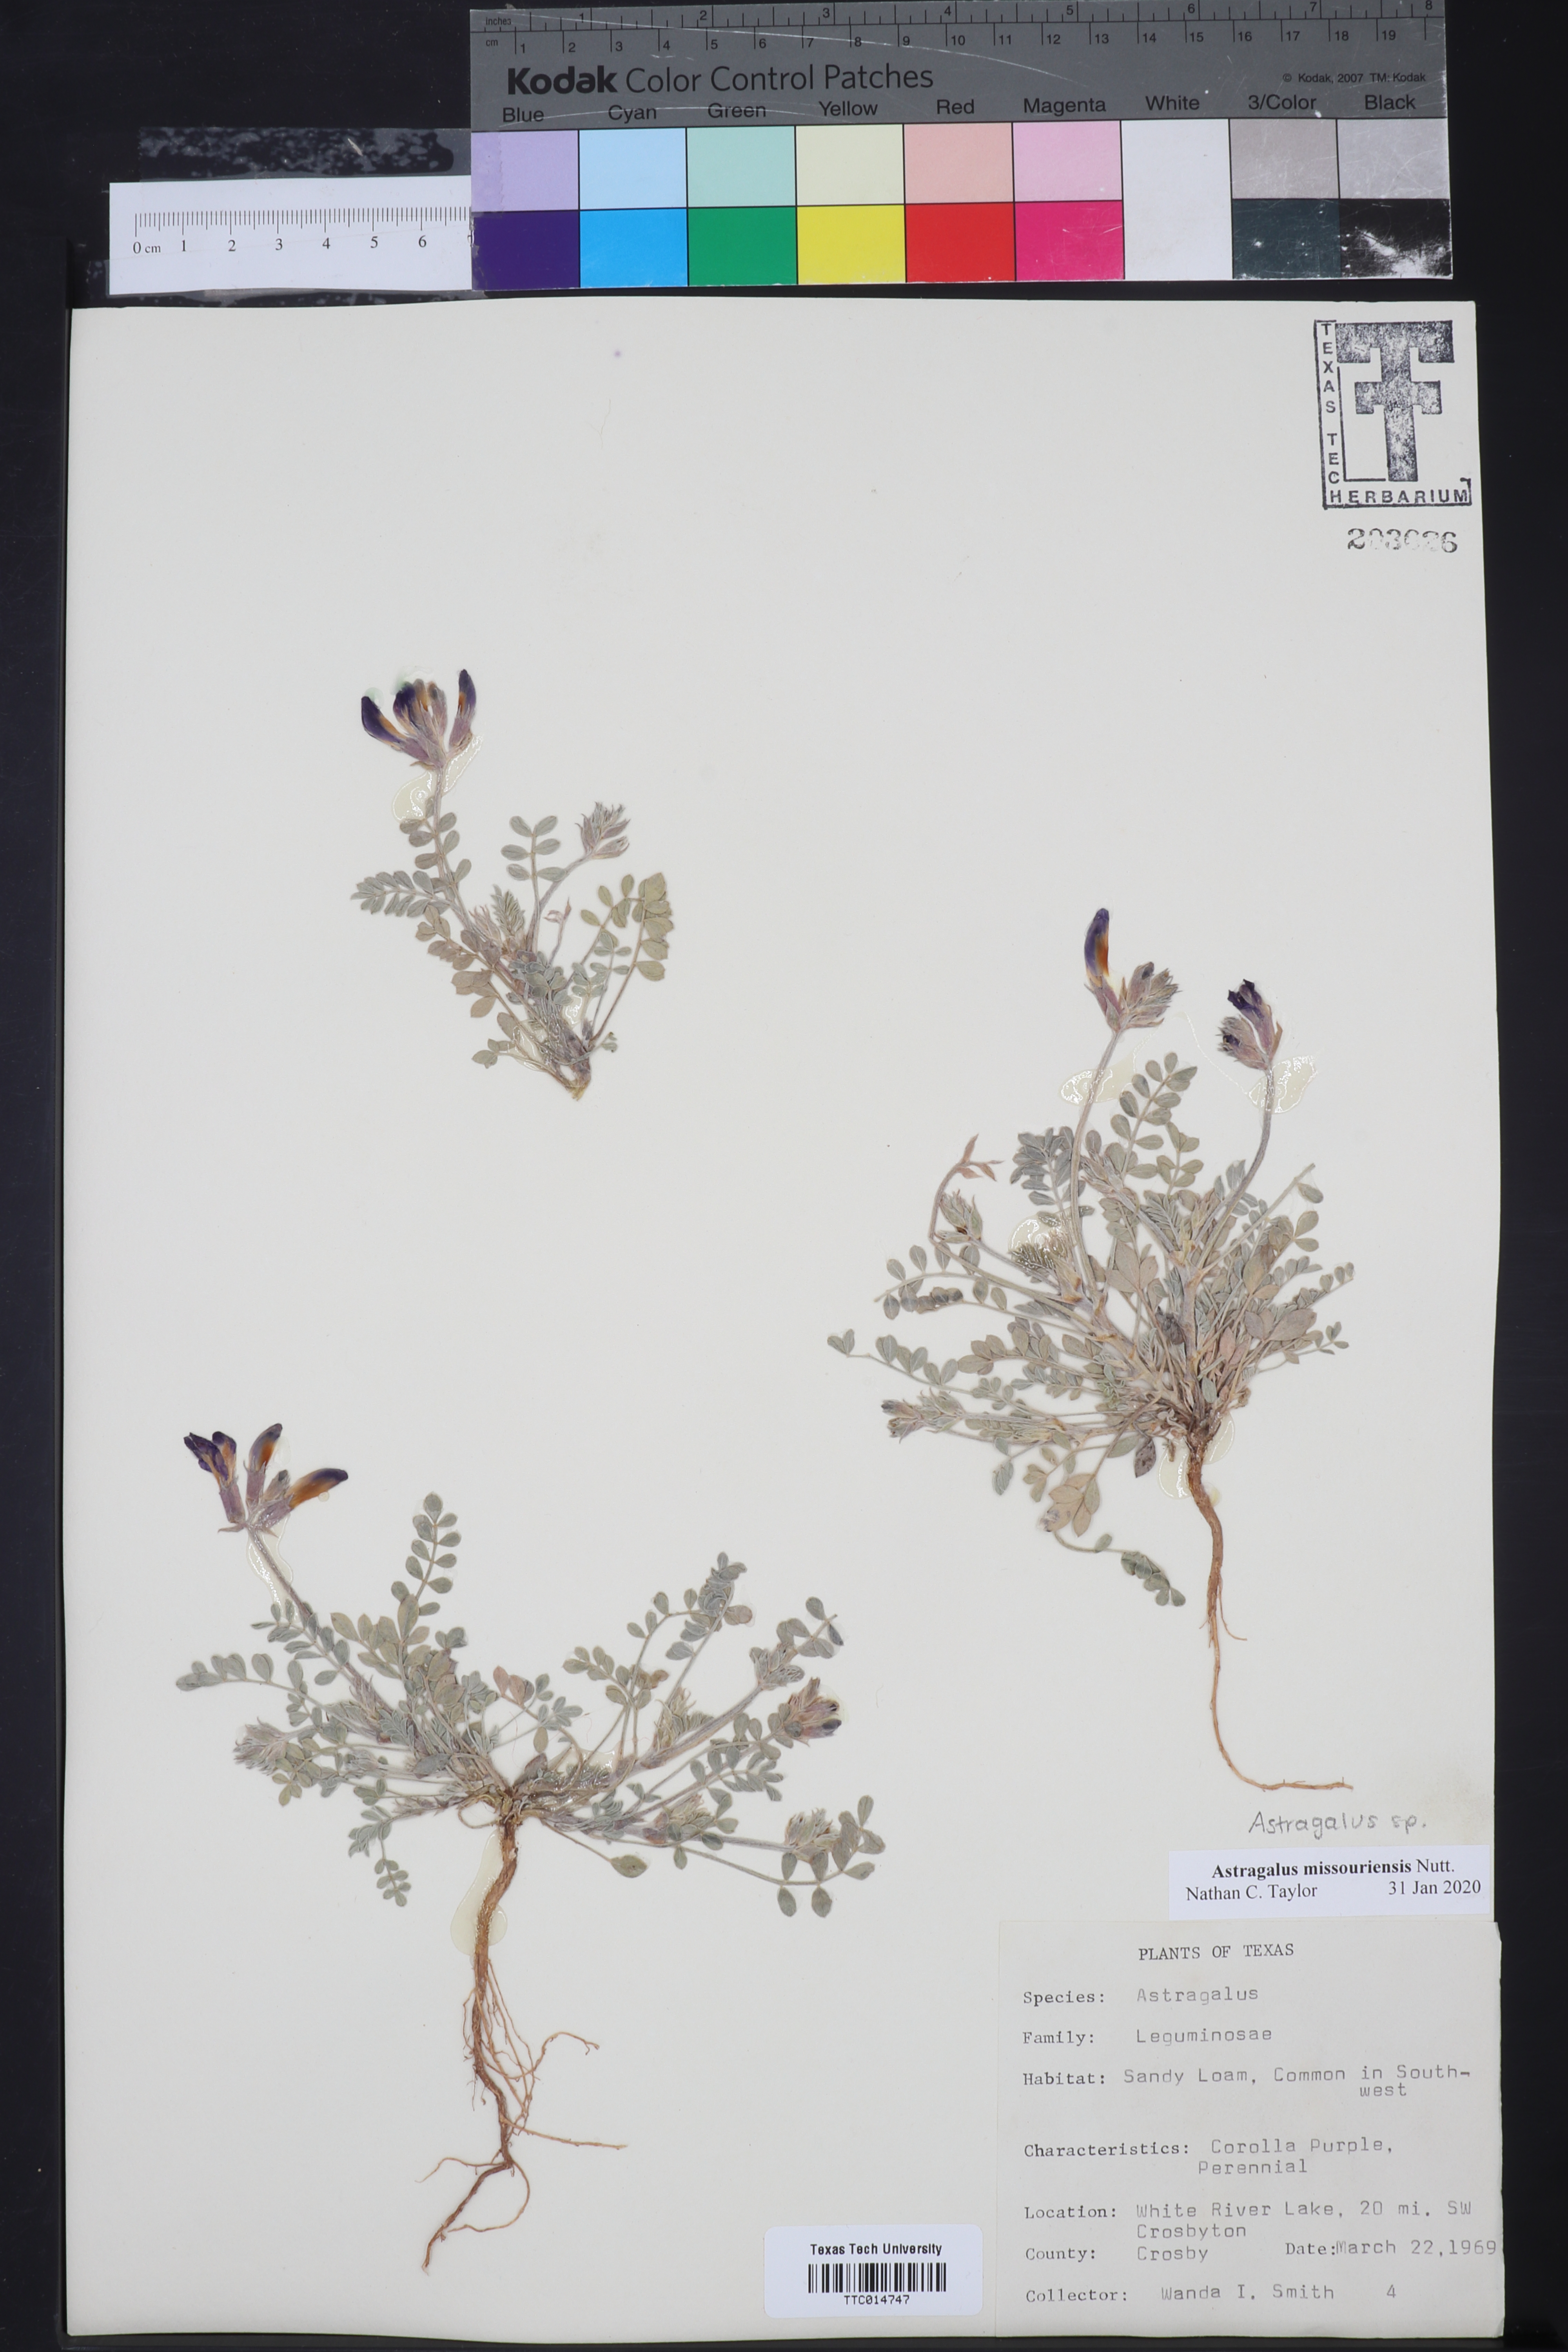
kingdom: Plantae
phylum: Tracheophyta
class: Magnoliopsida
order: Fabales
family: Fabaceae
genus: Astragalus
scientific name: Astragalus missouriensis
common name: Missouri milk-vetch
